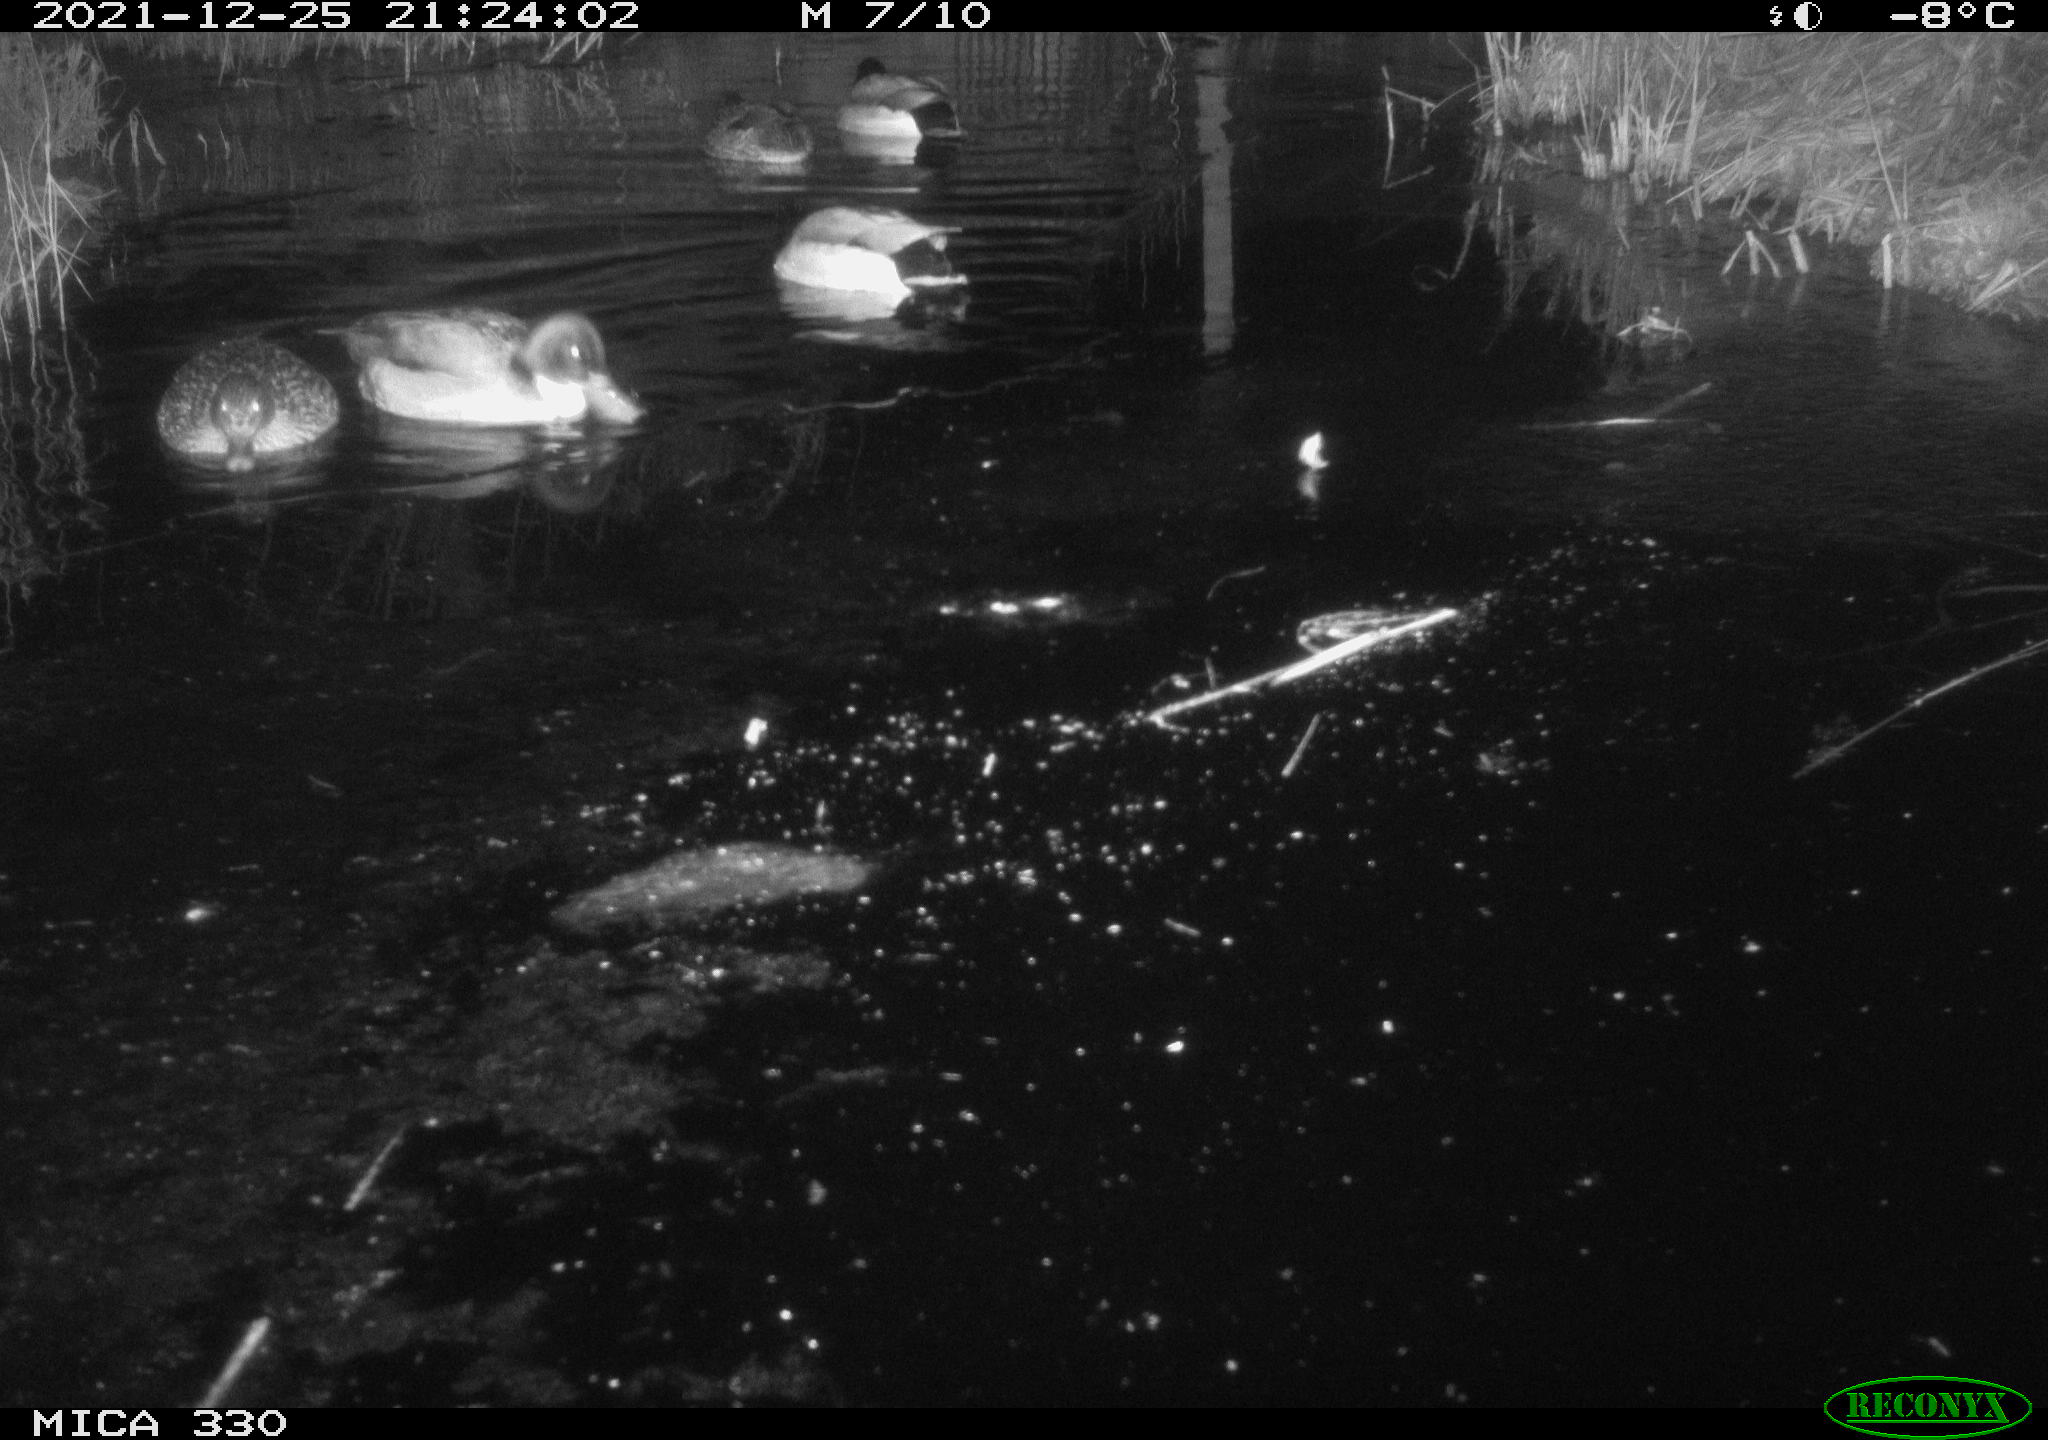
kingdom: Animalia
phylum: Chordata
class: Aves
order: Anseriformes
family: Anatidae
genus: Anas
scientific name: Anas platyrhynchos
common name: Mallard
